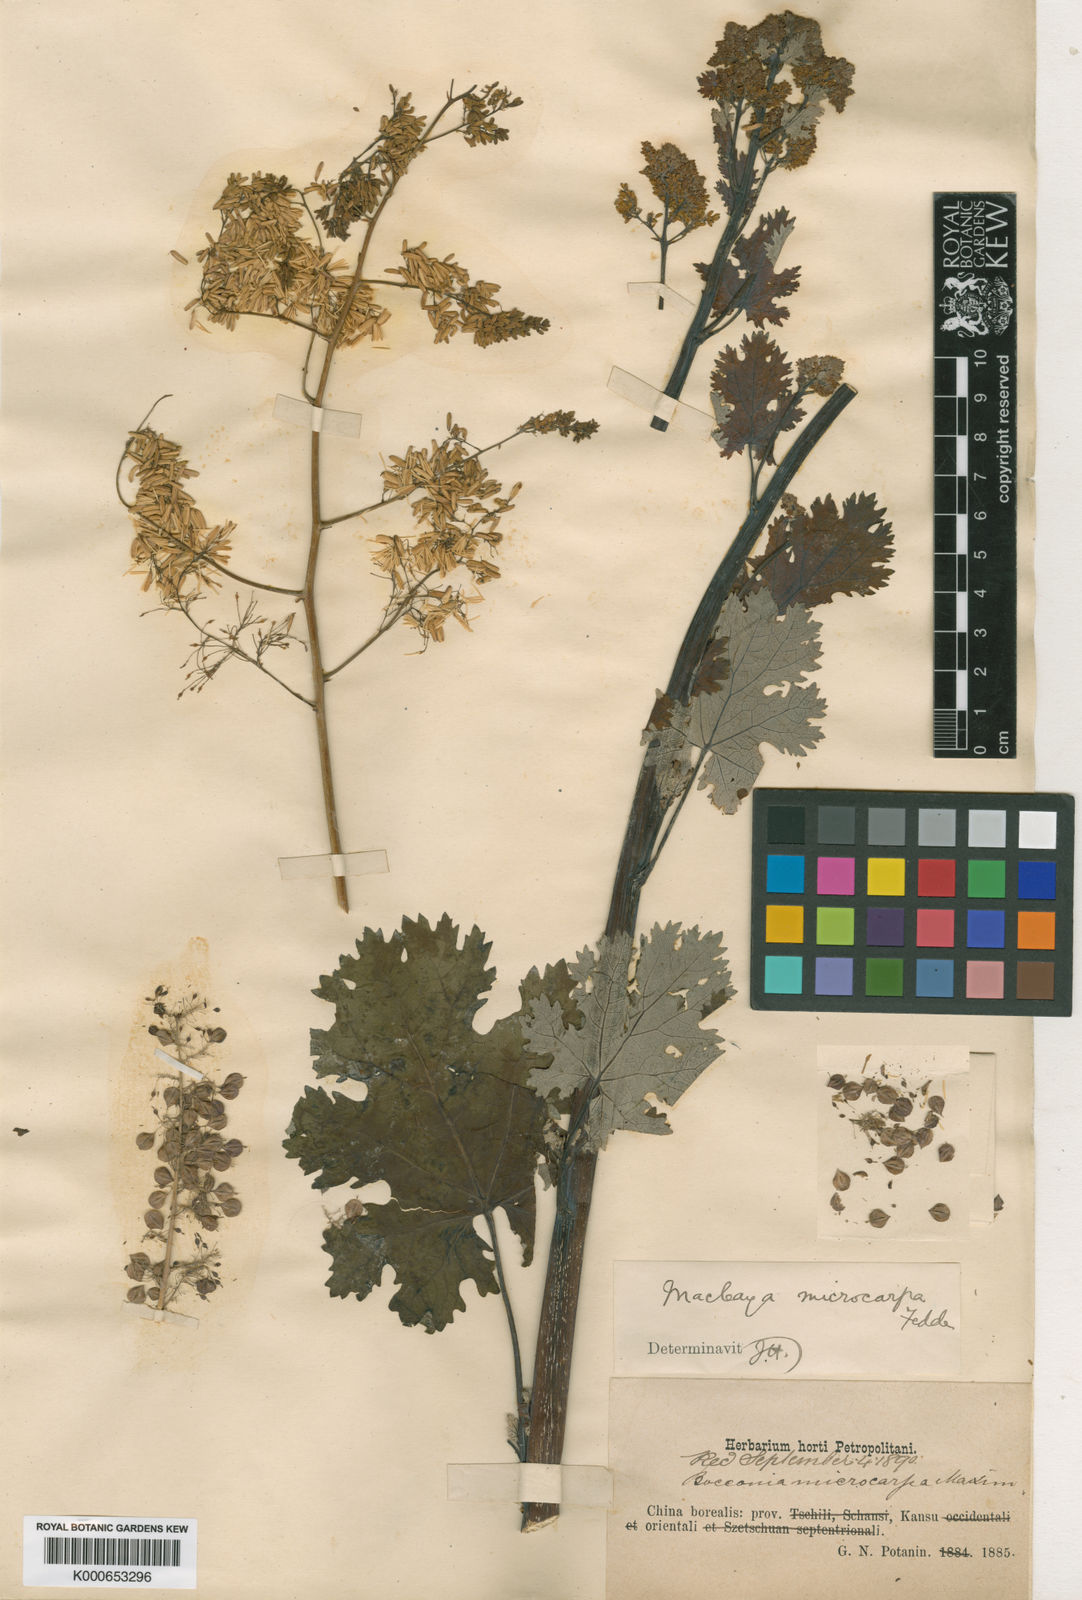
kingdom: Plantae
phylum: Tracheophyta
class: Magnoliopsida
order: Ranunculales
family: Papaveraceae
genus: Macleaya
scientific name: Macleaya microcarpa
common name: Plume-poppy
